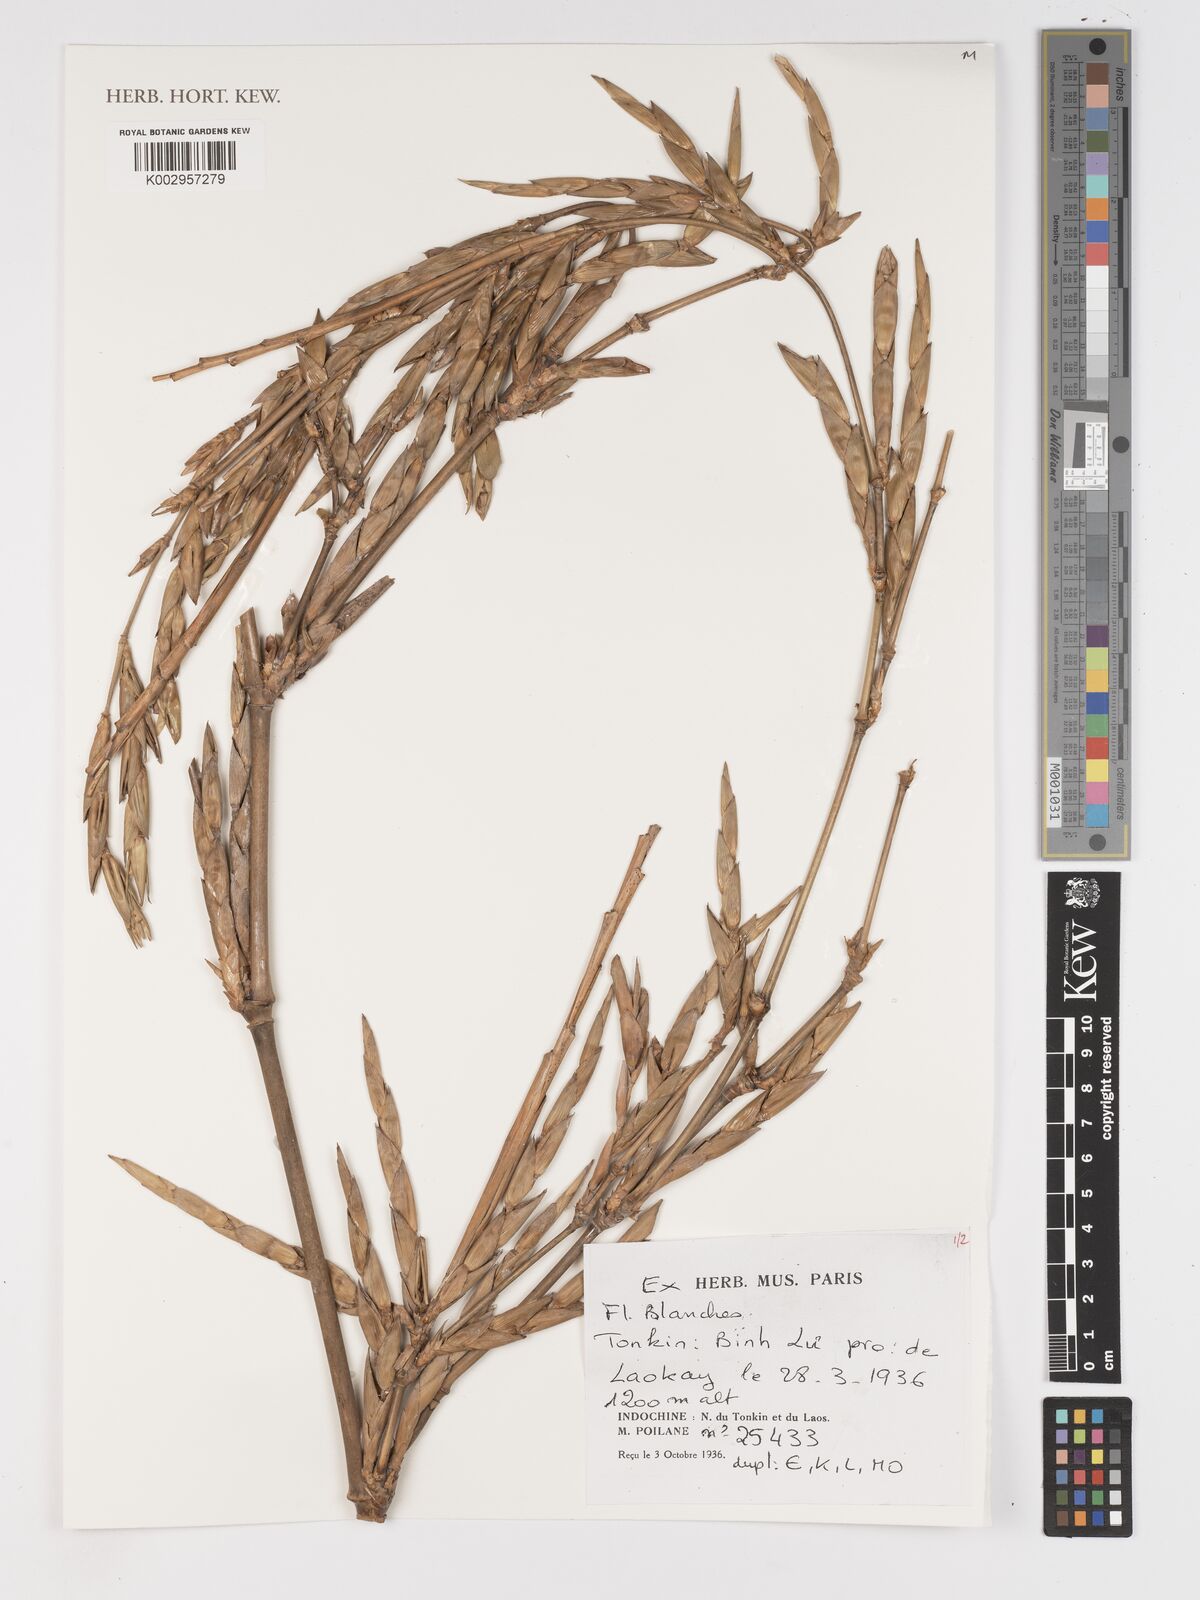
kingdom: Plantae
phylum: Tracheophyta
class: Liliopsida
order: Poales
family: Poaceae
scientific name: Poaceae
